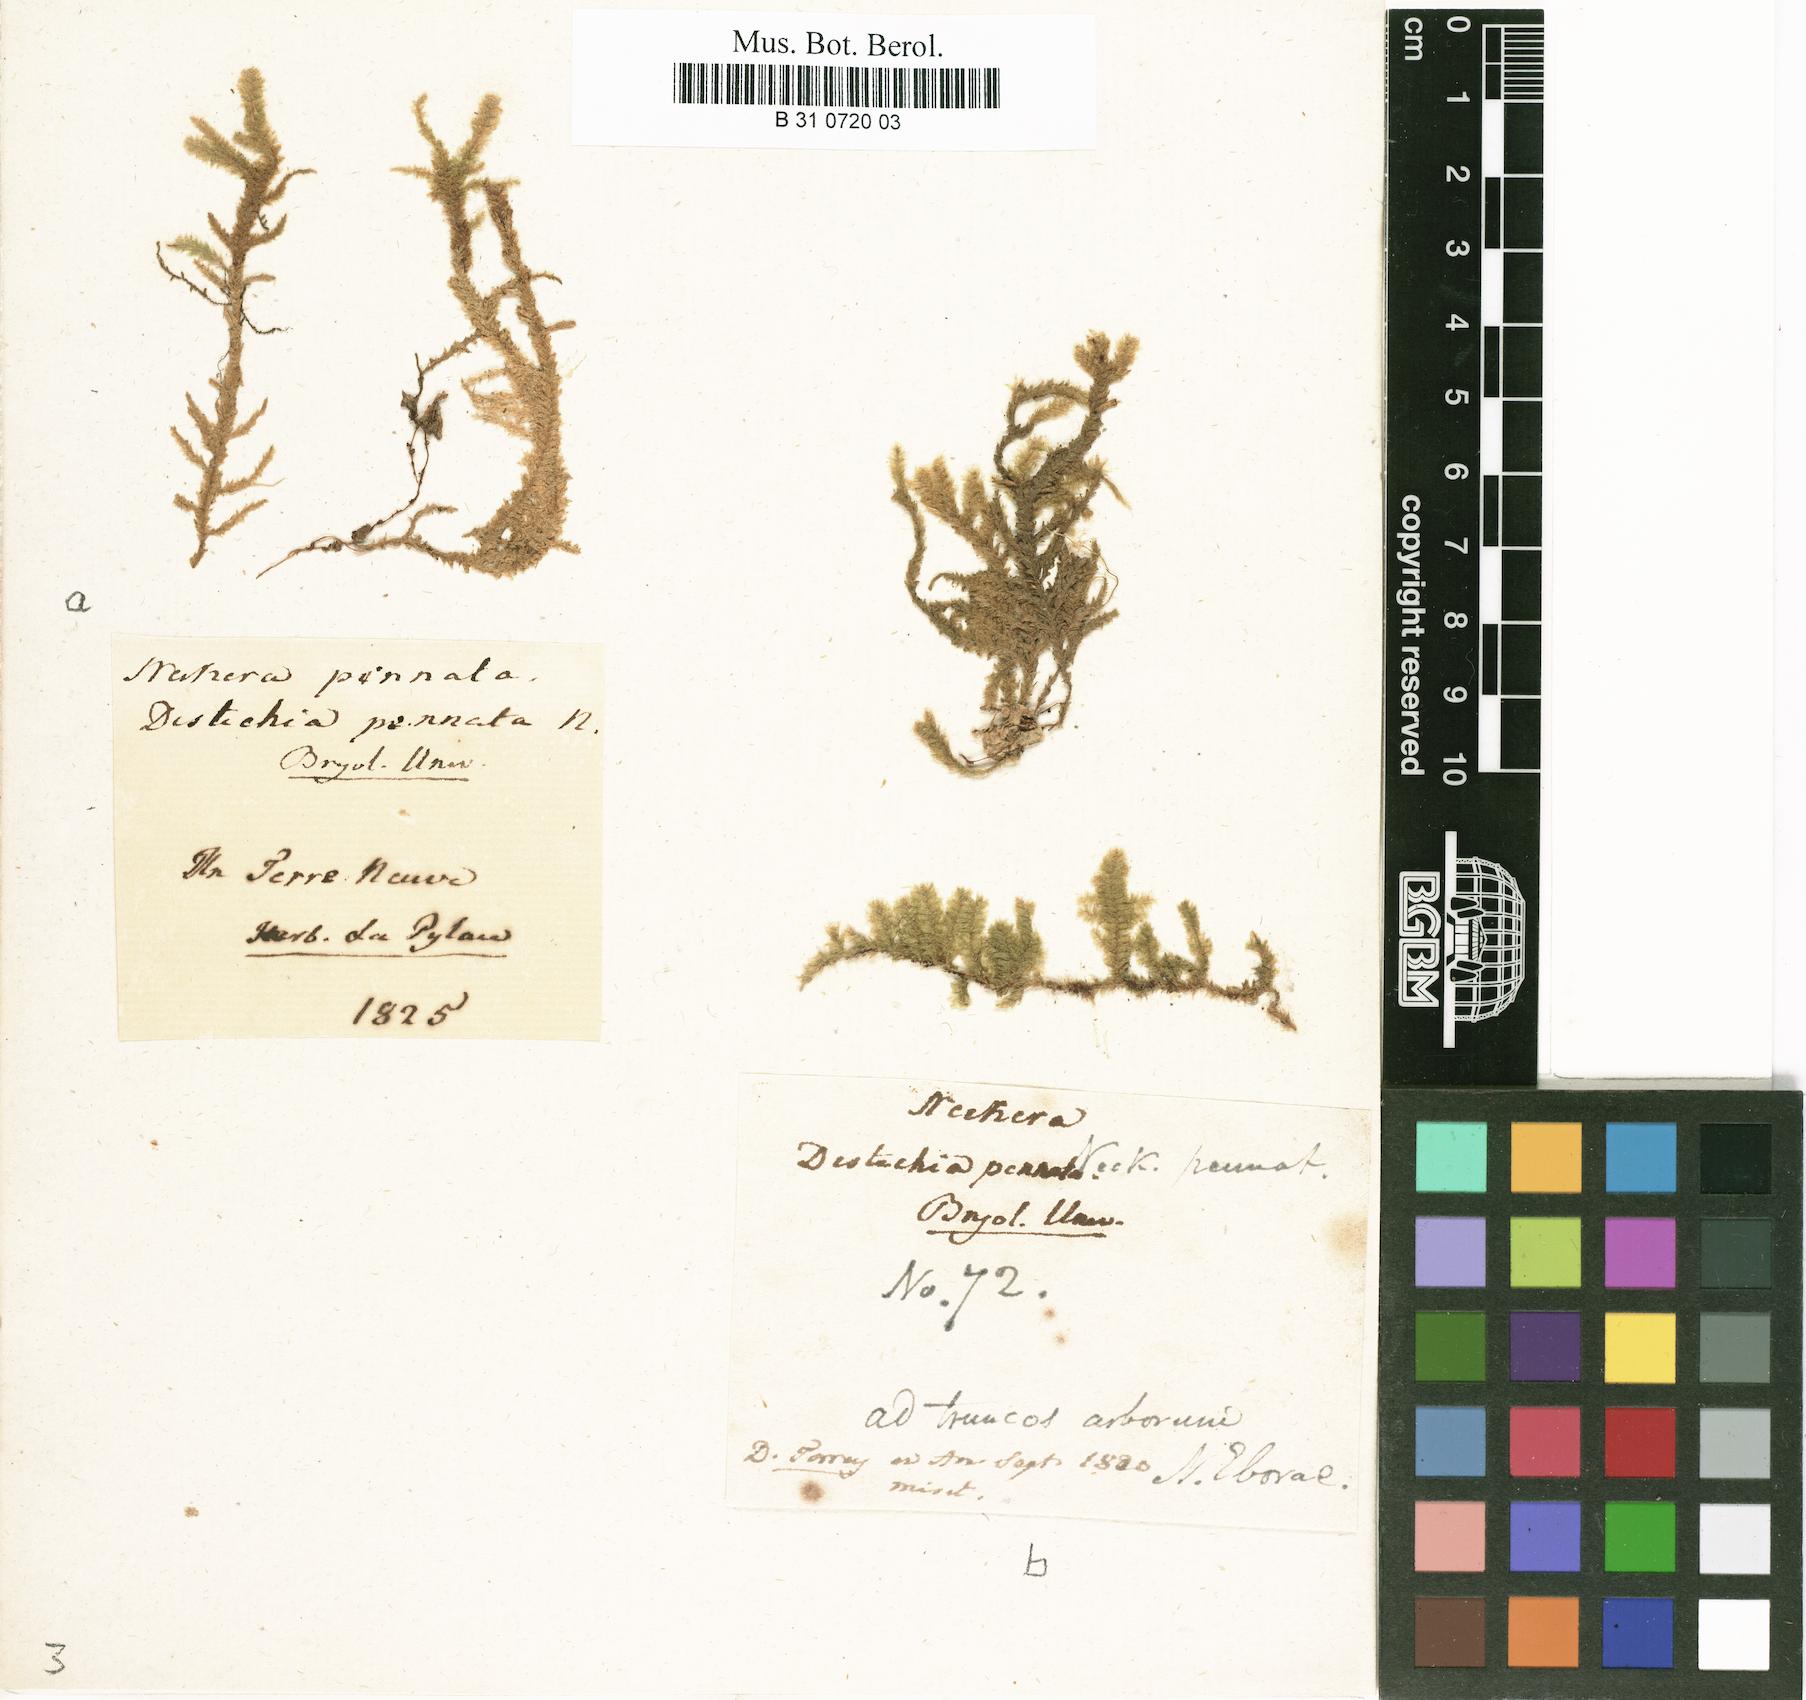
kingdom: Plantae
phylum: Bryophyta
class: Bryopsida
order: Hypnales
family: Neckeraceae
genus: Neckera
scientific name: Neckera pennata
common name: Feathery neckera
